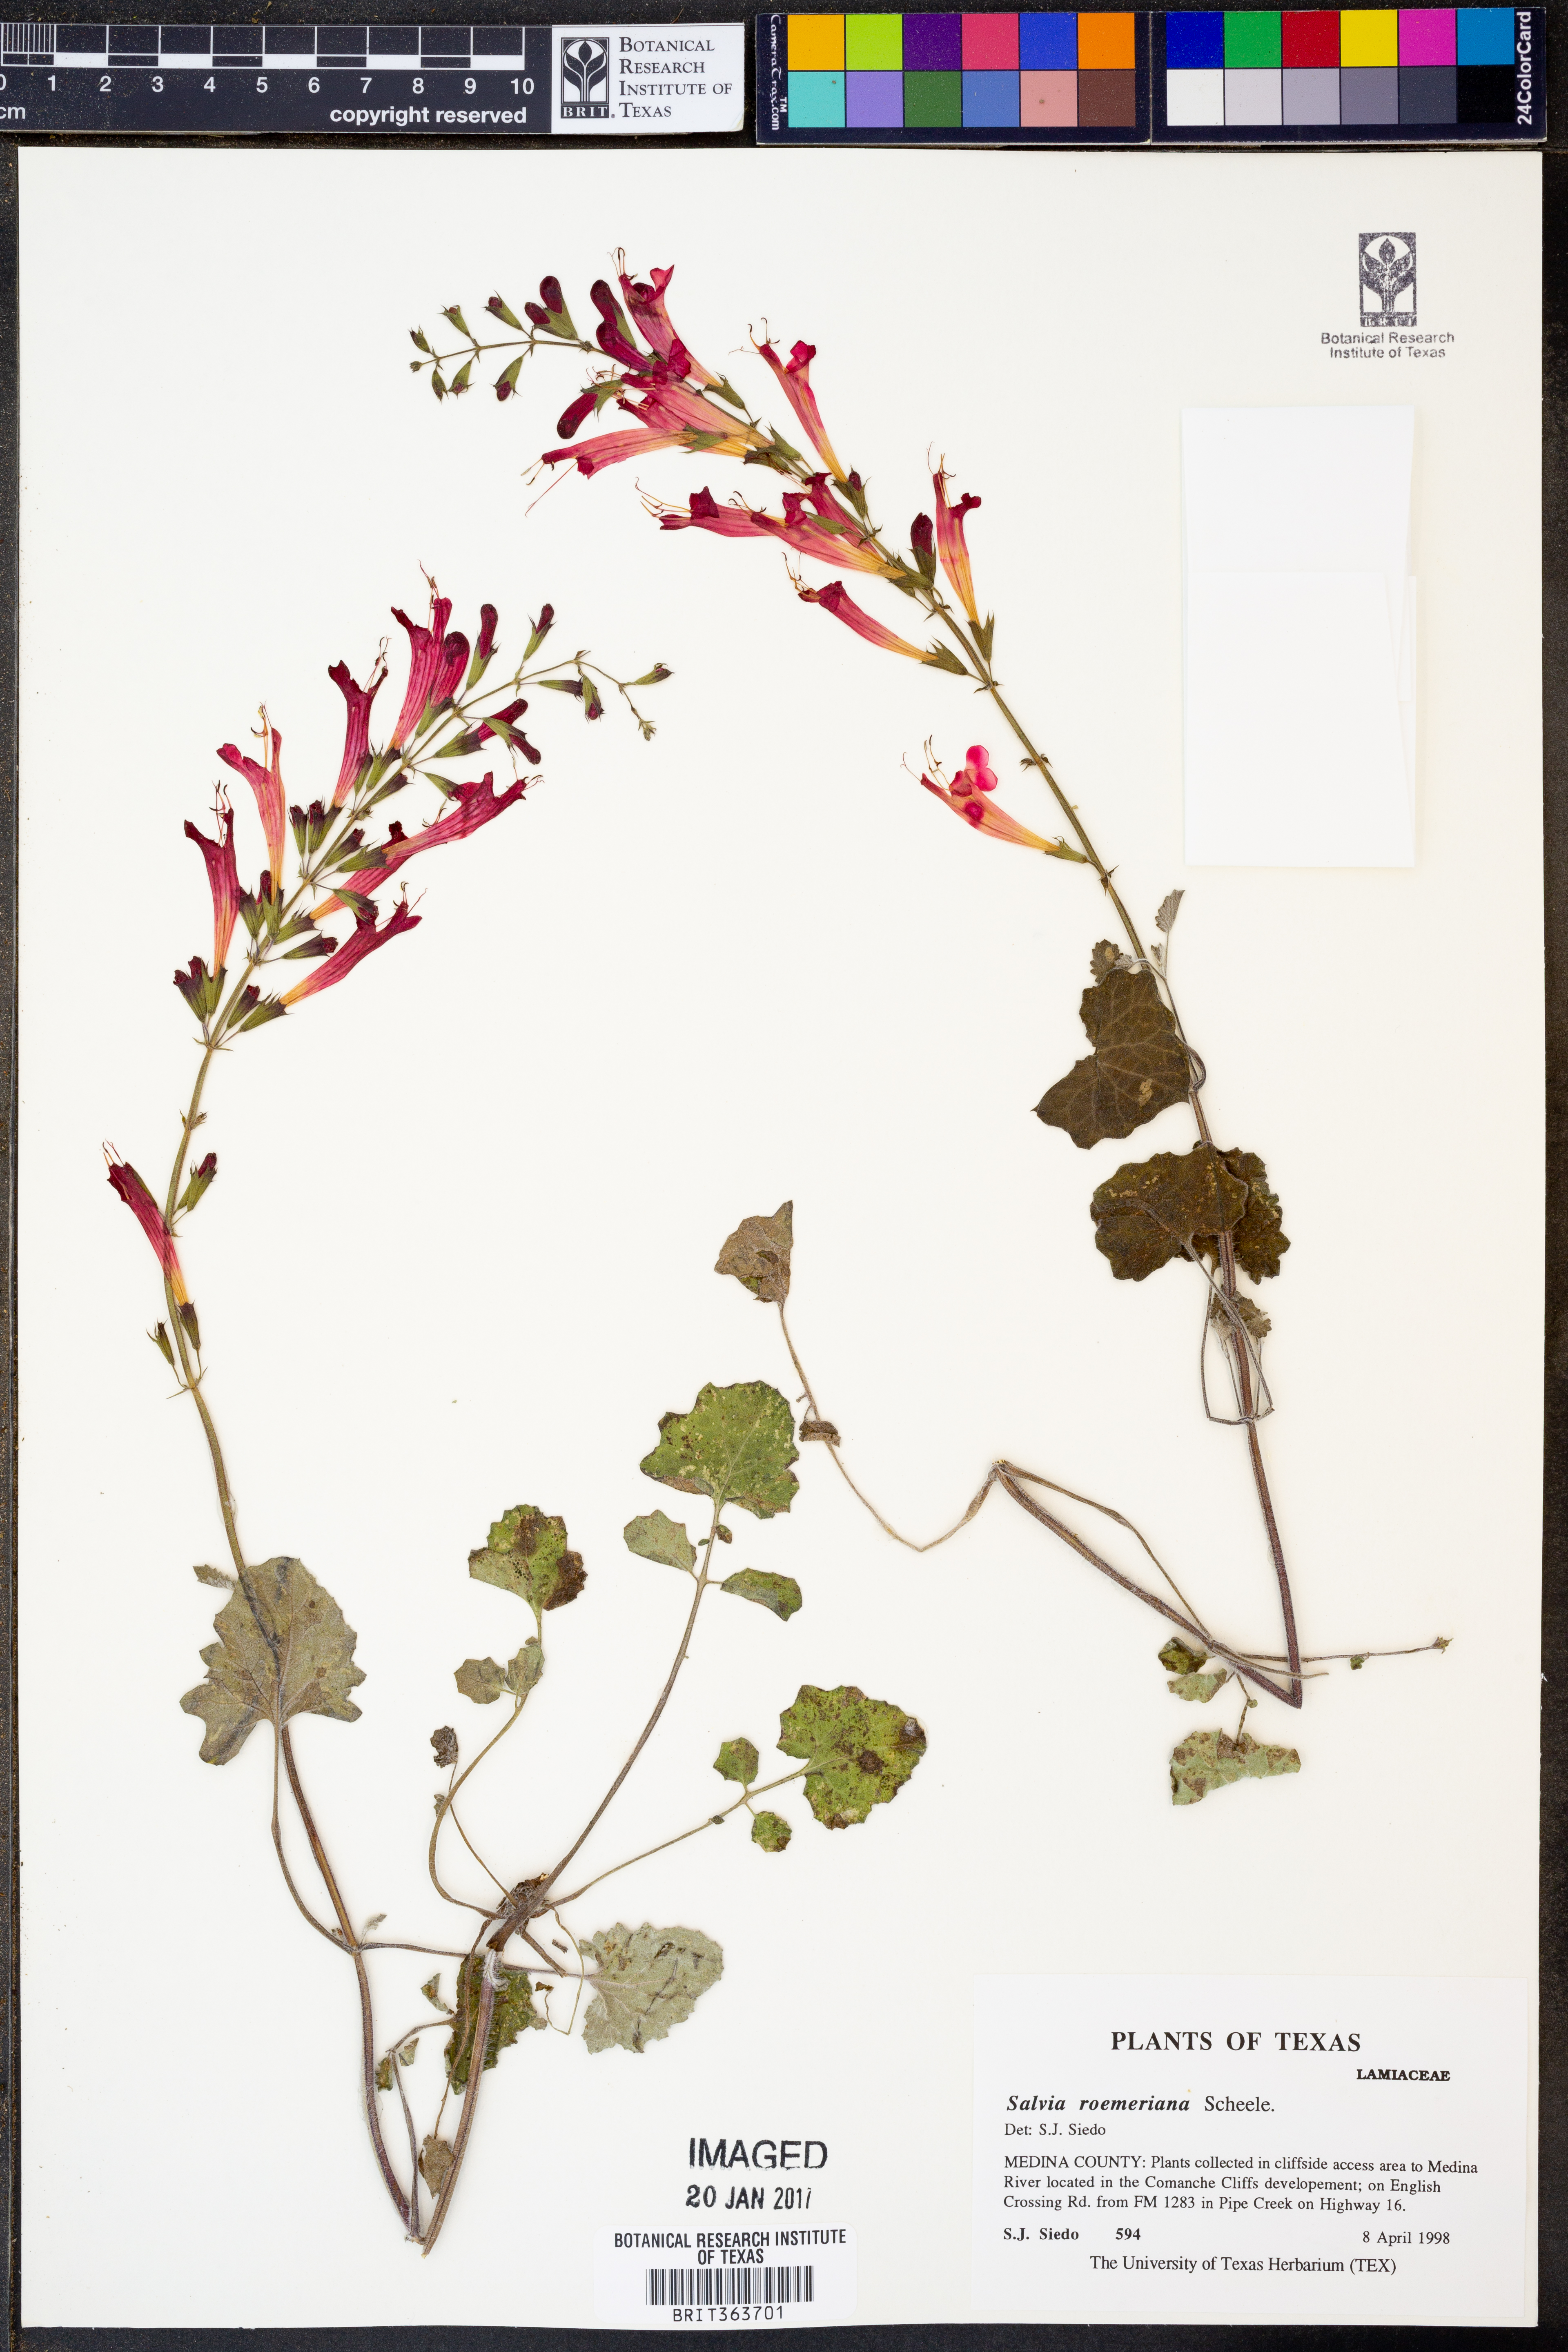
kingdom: Plantae
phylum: Tracheophyta
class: Magnoliopsida
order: Lamiales
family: Lamiaceae
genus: Salvia
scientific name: Salvia roemeriana
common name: Cedar sage
